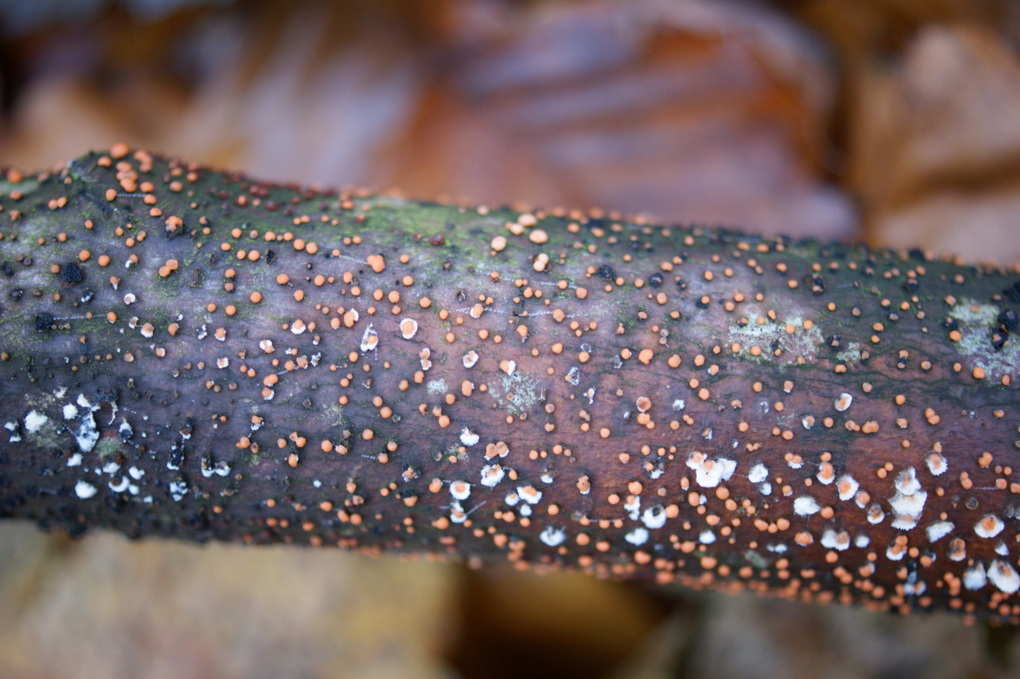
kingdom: Fungi
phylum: Ascomycota
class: Sordariomycetes
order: Hypocreales
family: Nectriaceae
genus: Nectria
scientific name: Nectria cinnabarina
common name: almindelig cinnobersvamp
